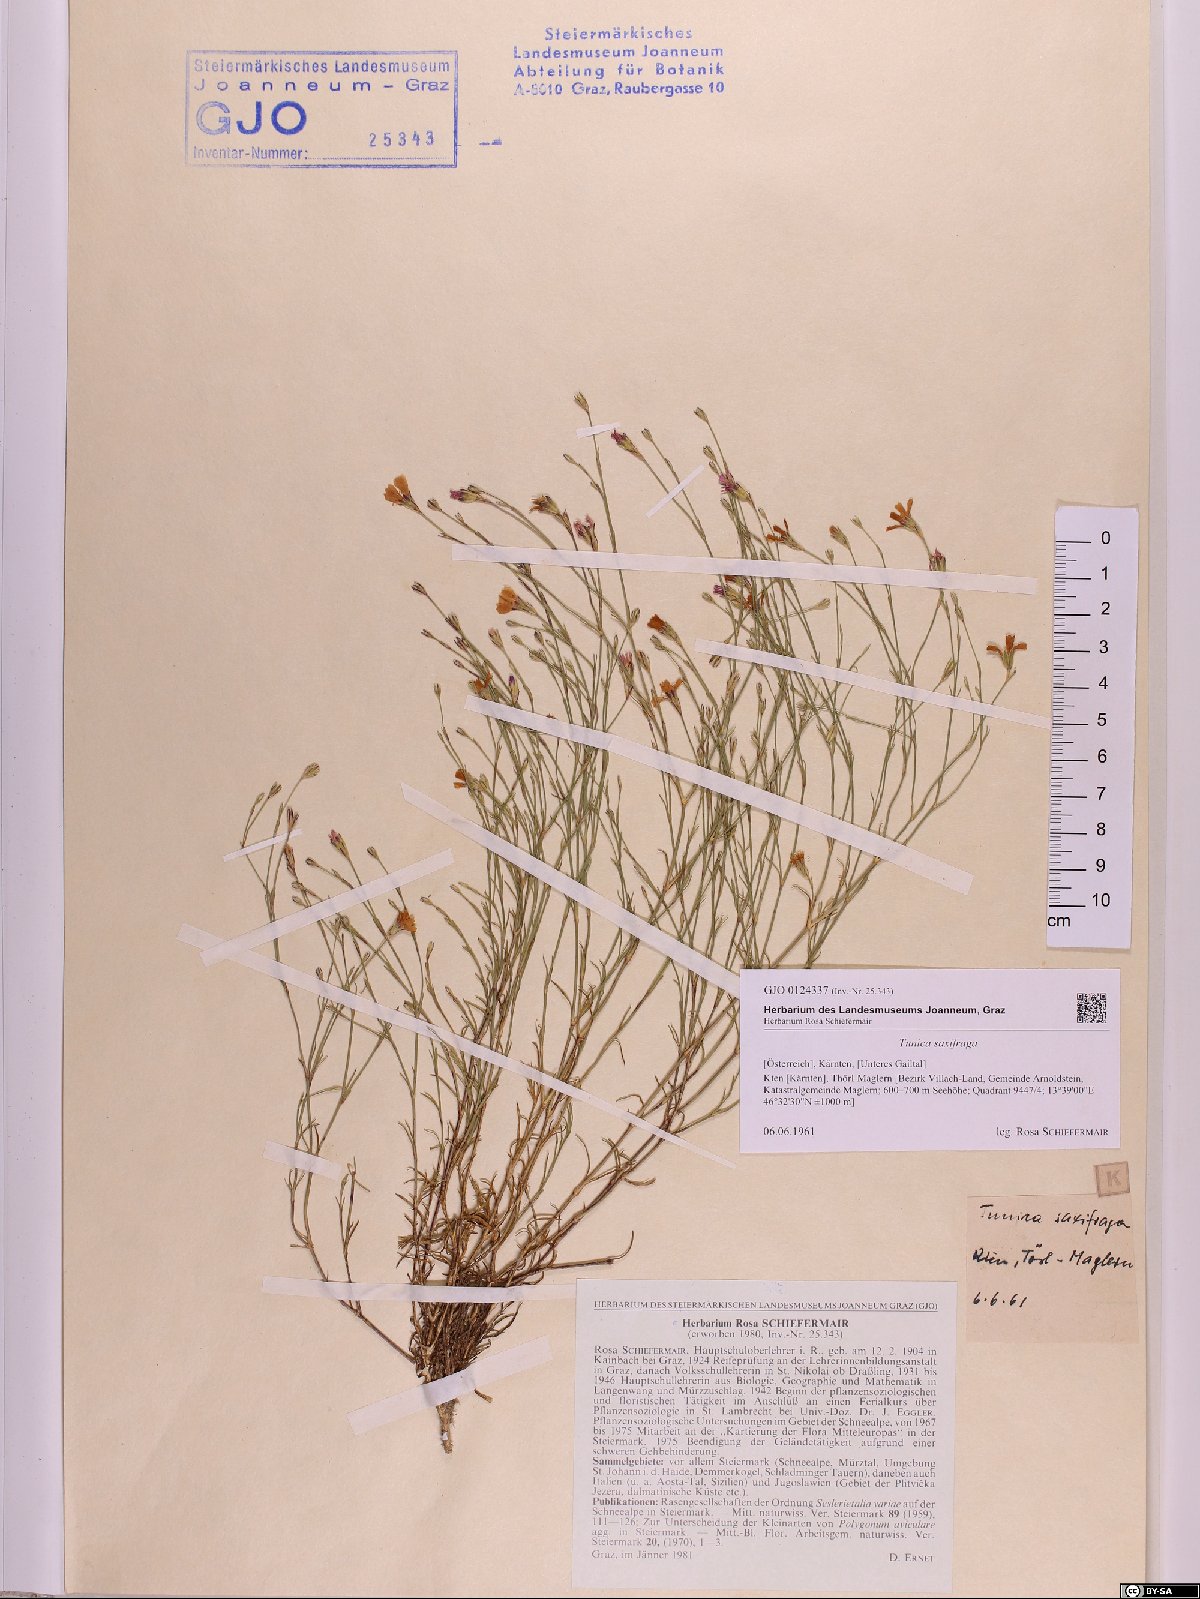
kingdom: Plantae
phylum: Tracheophyta
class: Magnoliopsida
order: Caryophyllales
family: Caryophyllaceae
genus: Petrorhagia
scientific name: Petrorhagia saxifraga
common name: Tunicflower
